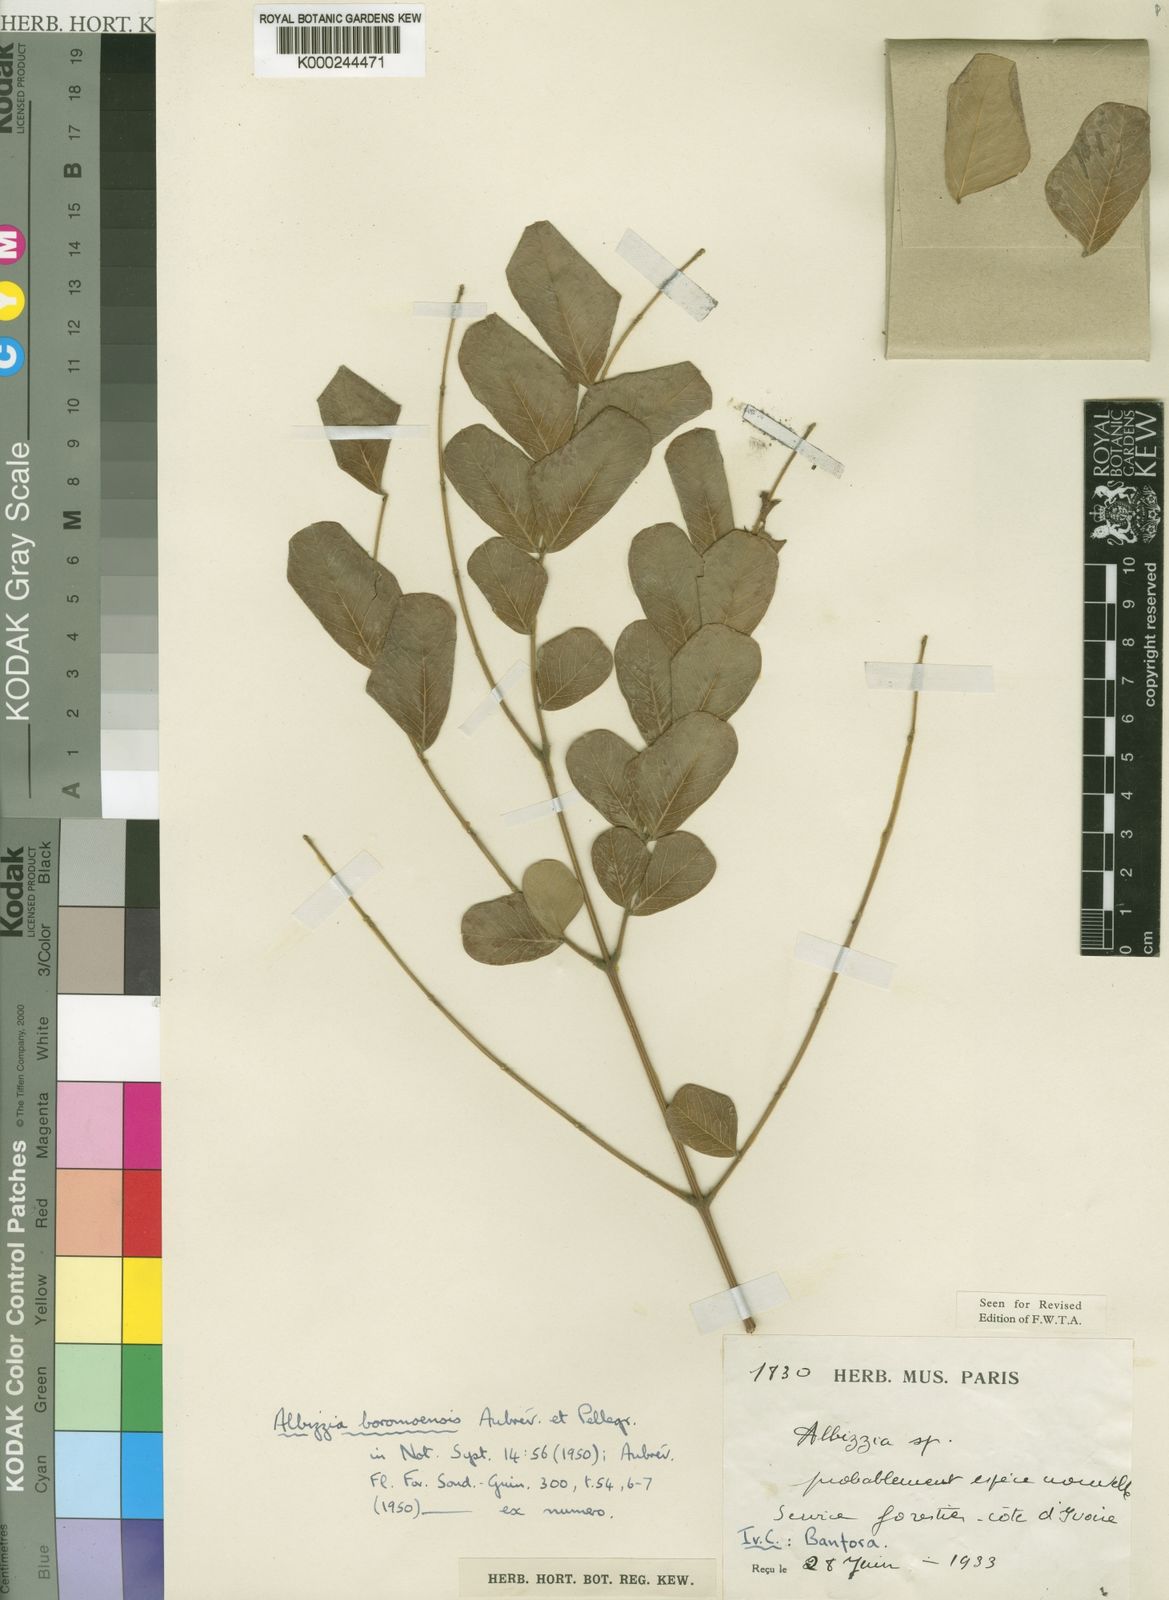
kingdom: Plantae
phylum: Tracheophyta
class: Magnoliopsida
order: Fabales
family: Fabaceae
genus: Albizia
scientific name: Albizia malacophylla
